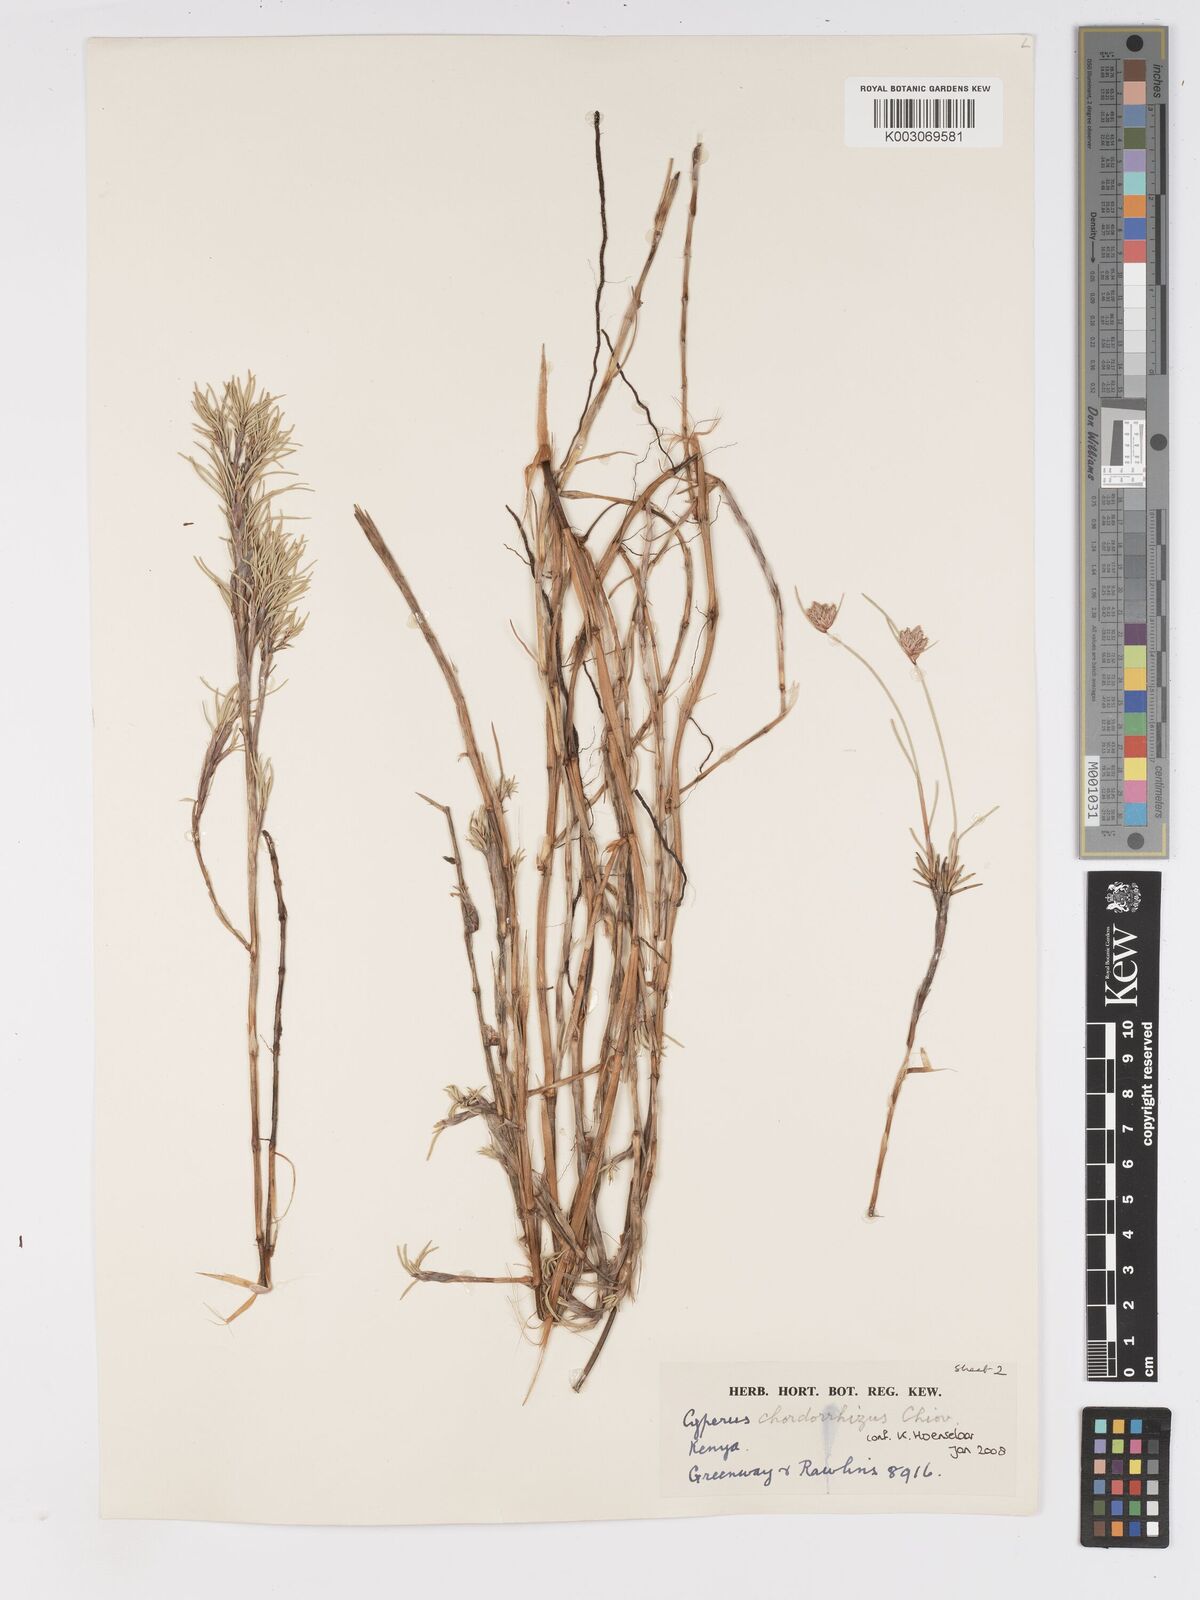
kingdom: Plantae
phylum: Tracheophyta
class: Liliopsida
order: Poales
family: Cyperaceae
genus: Cyperus
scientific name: Cyperus chordorrhizus
